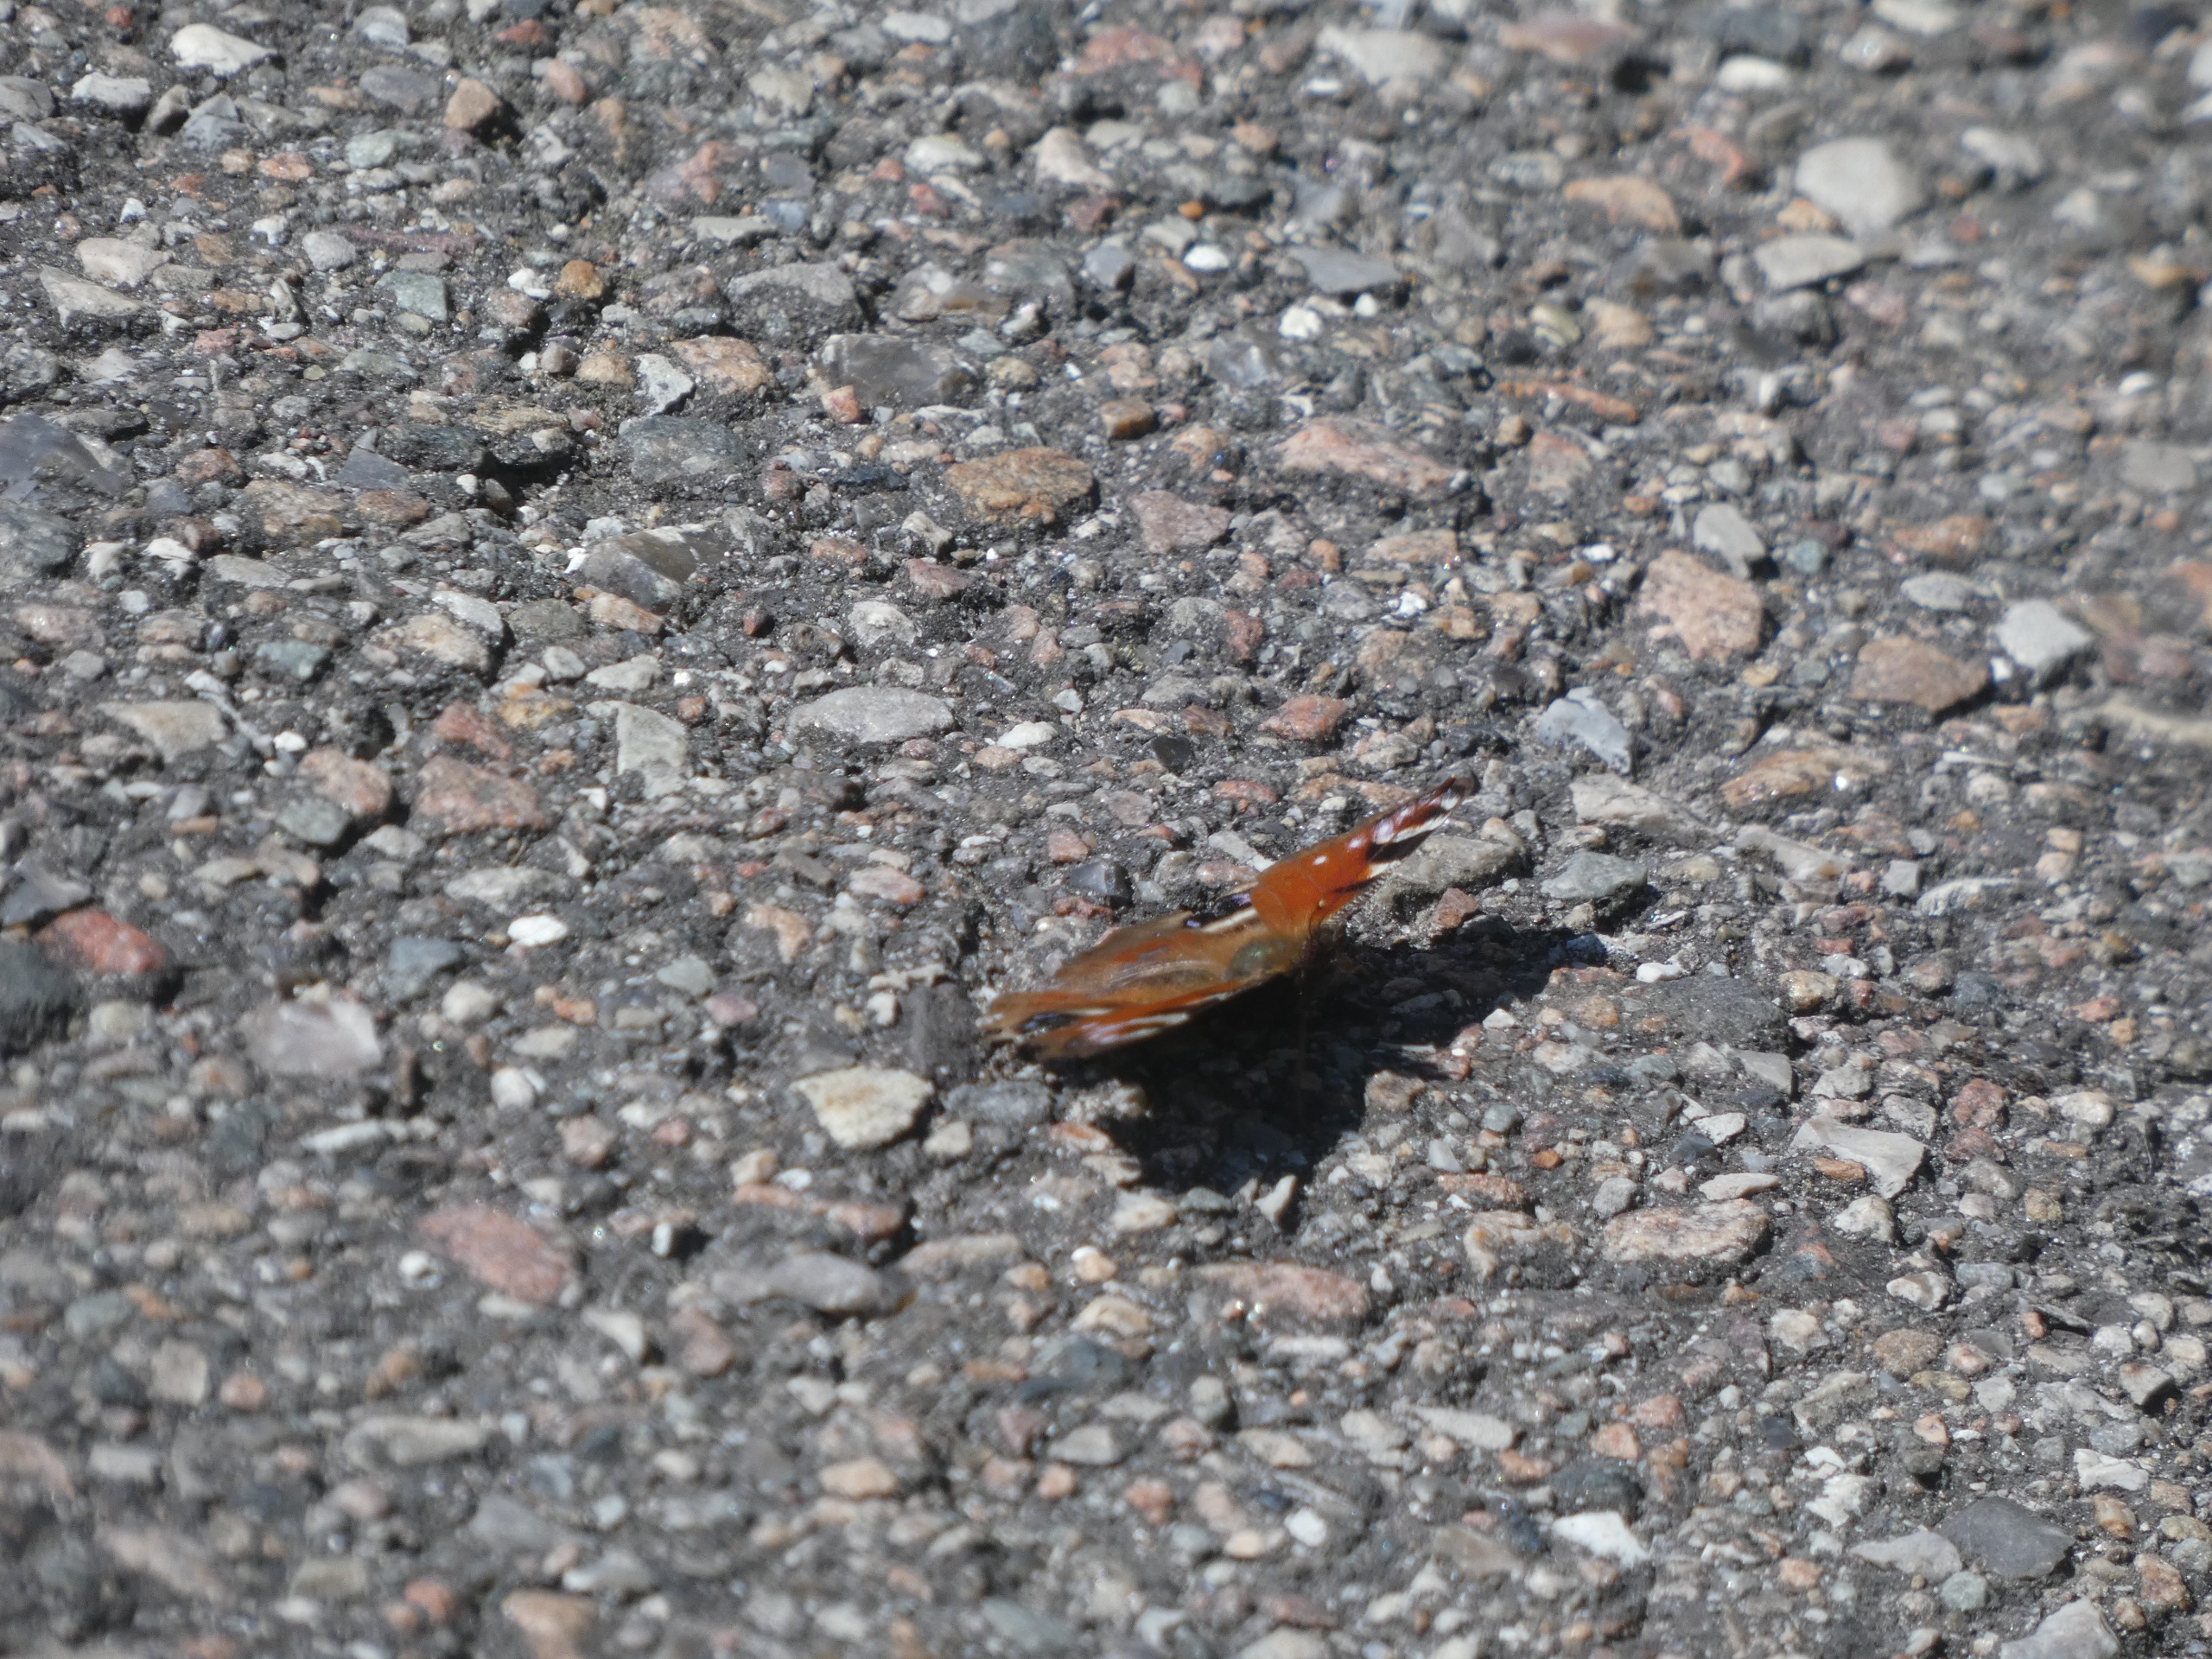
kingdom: Animalia
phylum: Arthropoda
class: Insecta
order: Lepidoptera
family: Nymphalidae
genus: Aglais
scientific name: Aglais io
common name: Dagpåfugleøje
